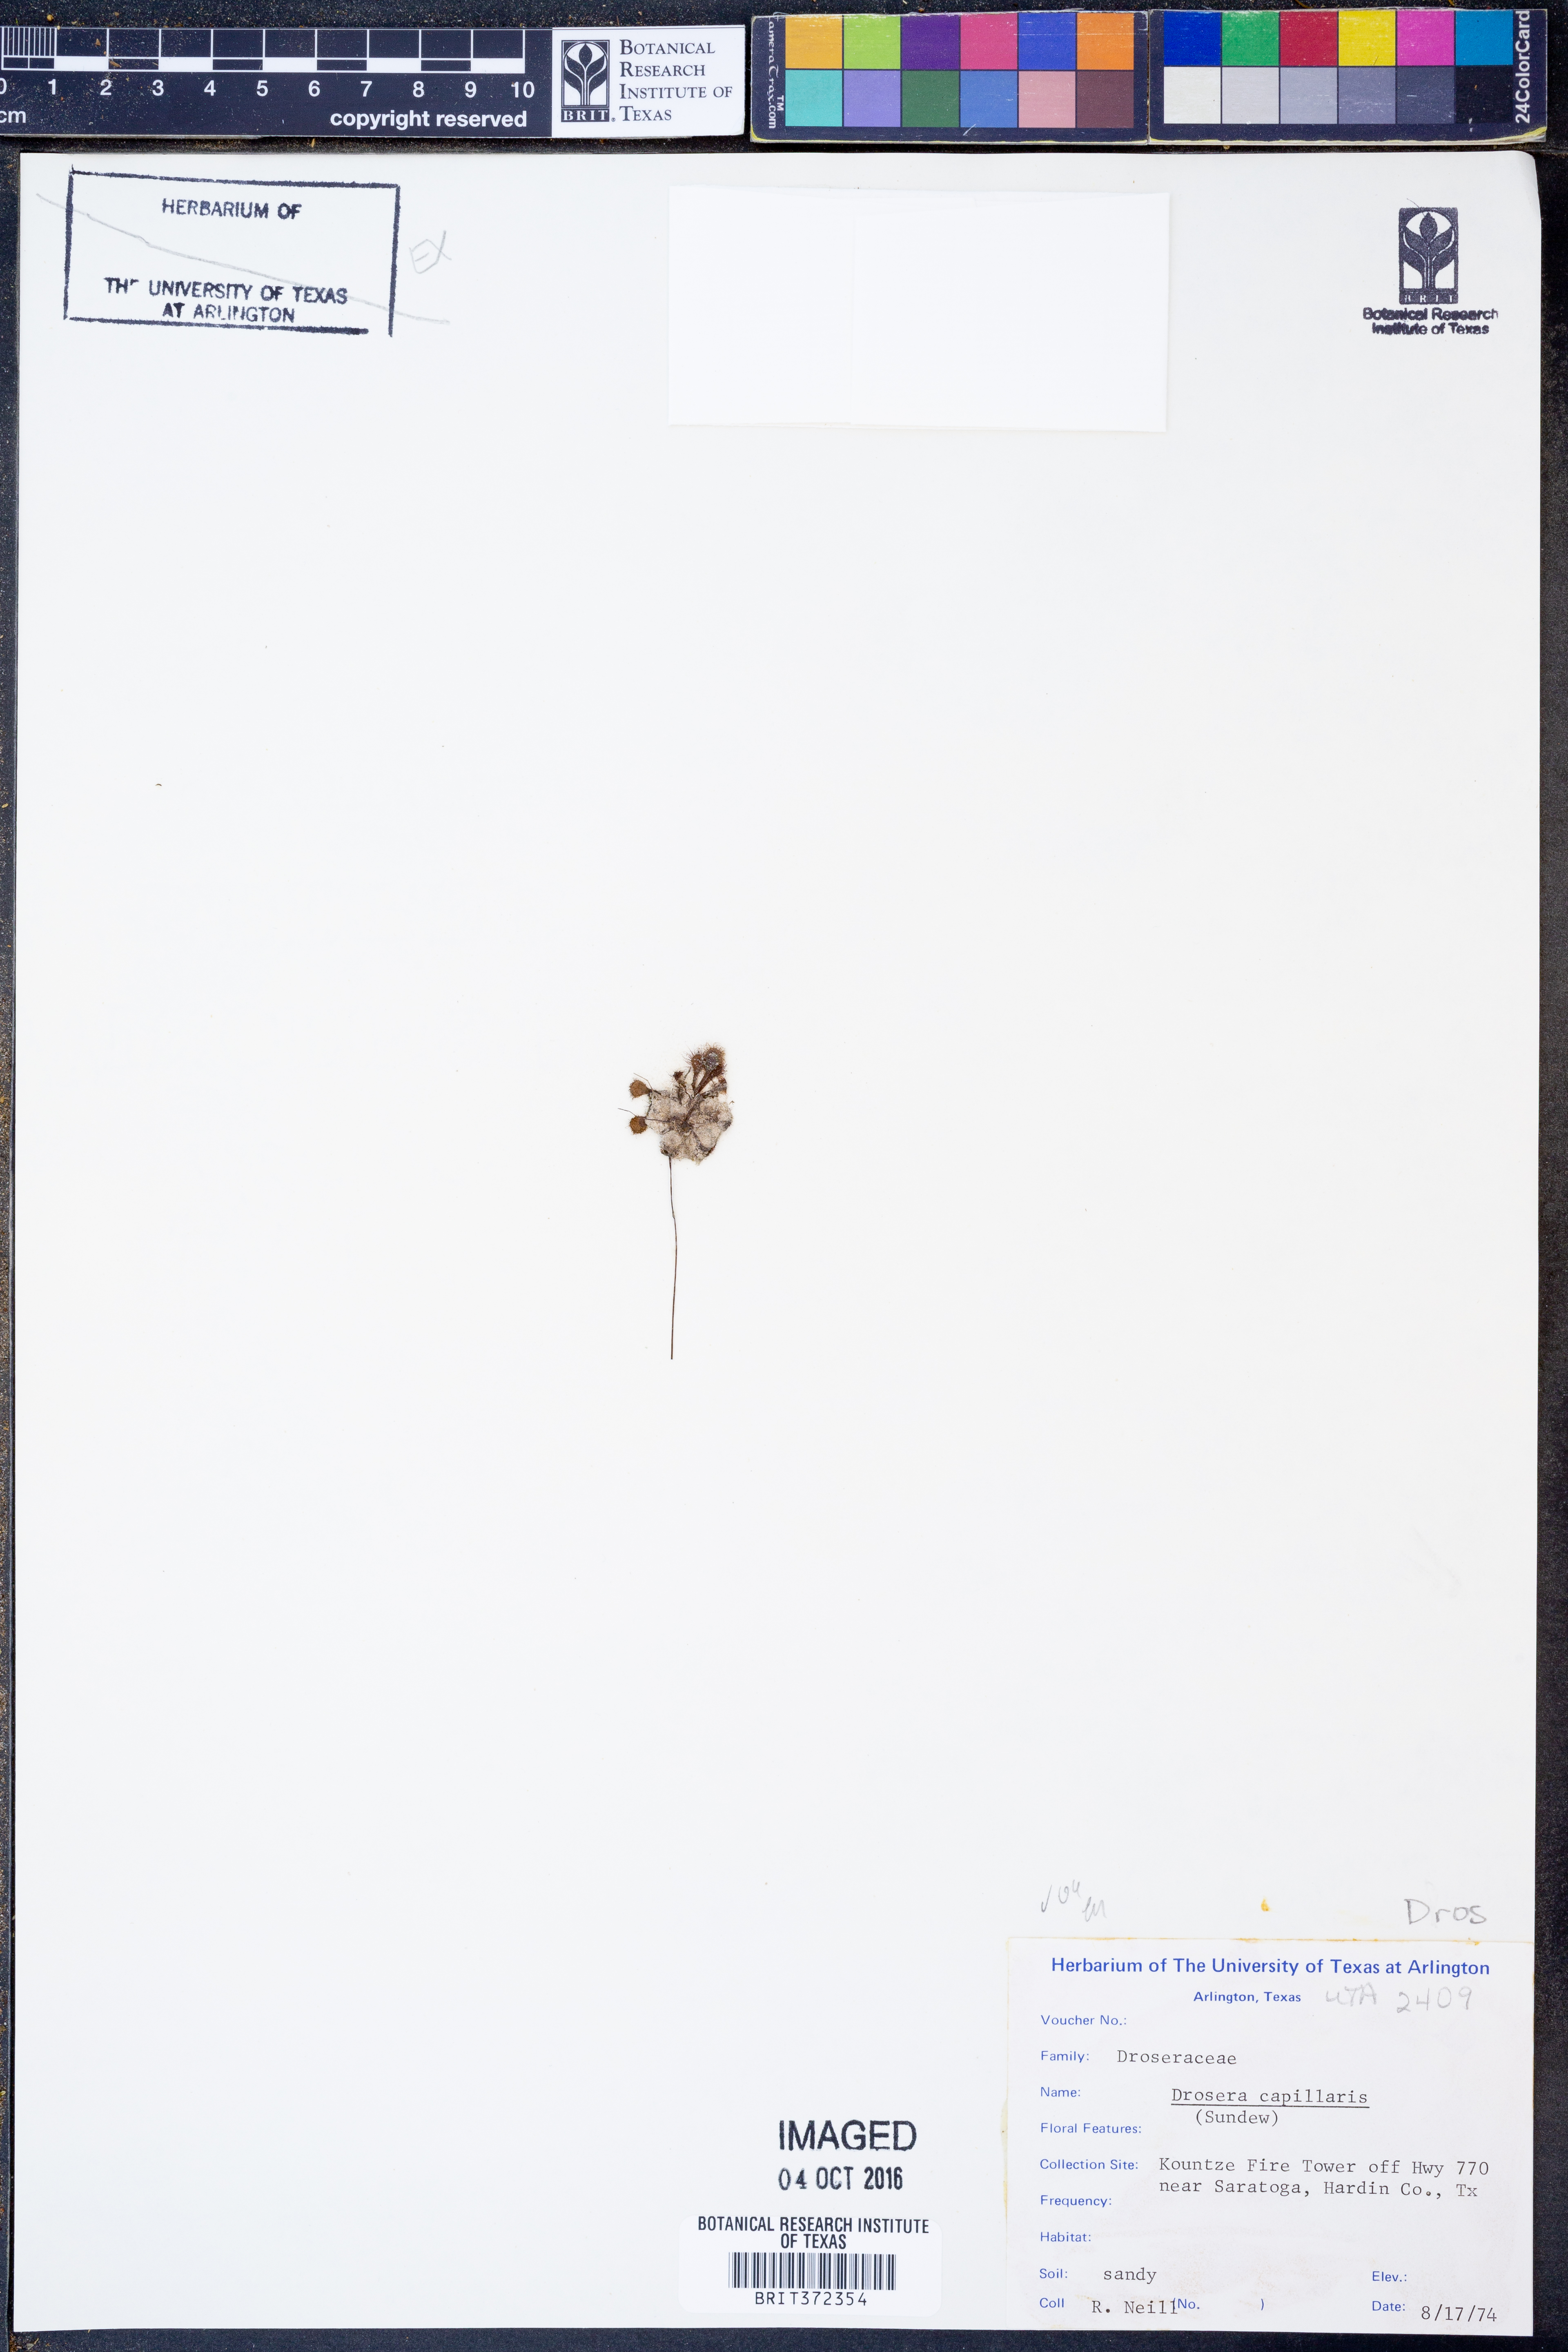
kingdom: Plantae
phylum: Tracheophyta
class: Magnoliopsida
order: Caryophyllales
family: Droseraceae
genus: Drosera
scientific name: Drosera capillaris
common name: Pink sundew
